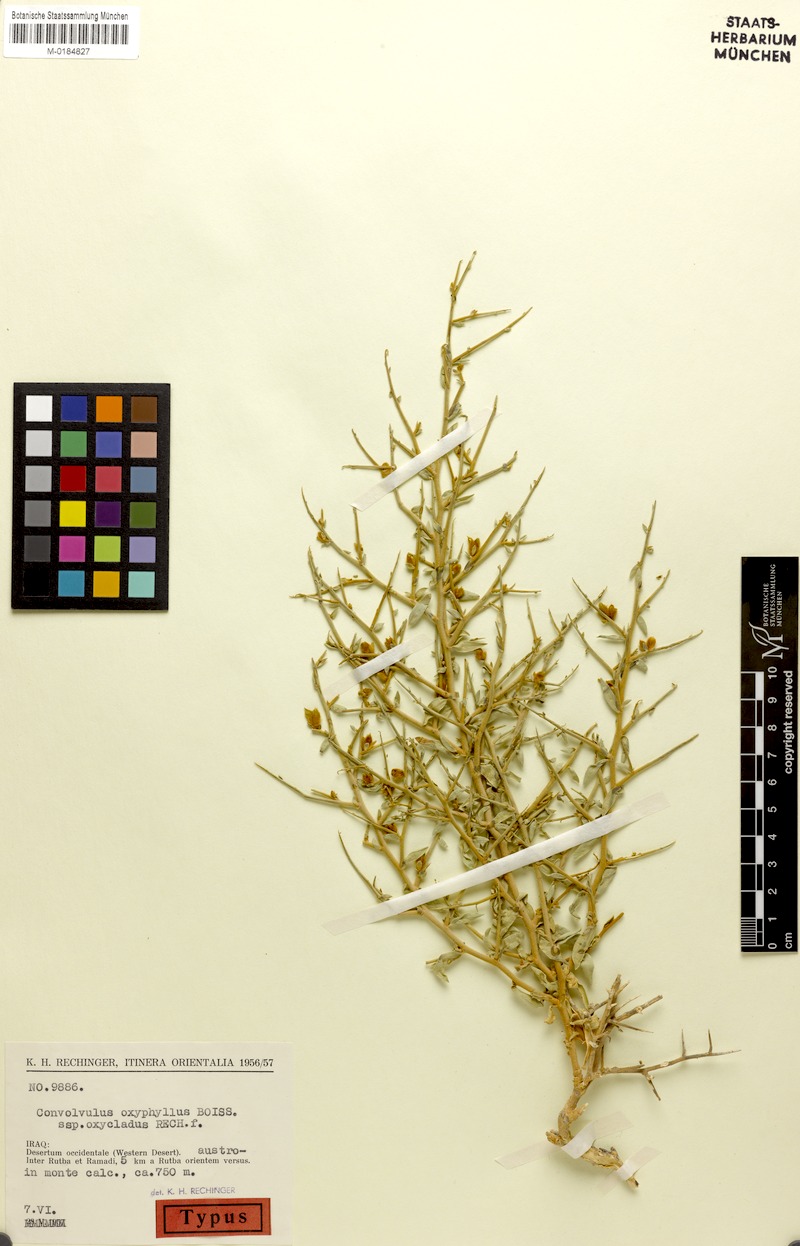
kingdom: Plantae
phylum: Tracheophyta
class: Magnoliopsida
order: Solanales
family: Convolvulaceae
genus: Convolvulus
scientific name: Convolvulus oxyphyllus
